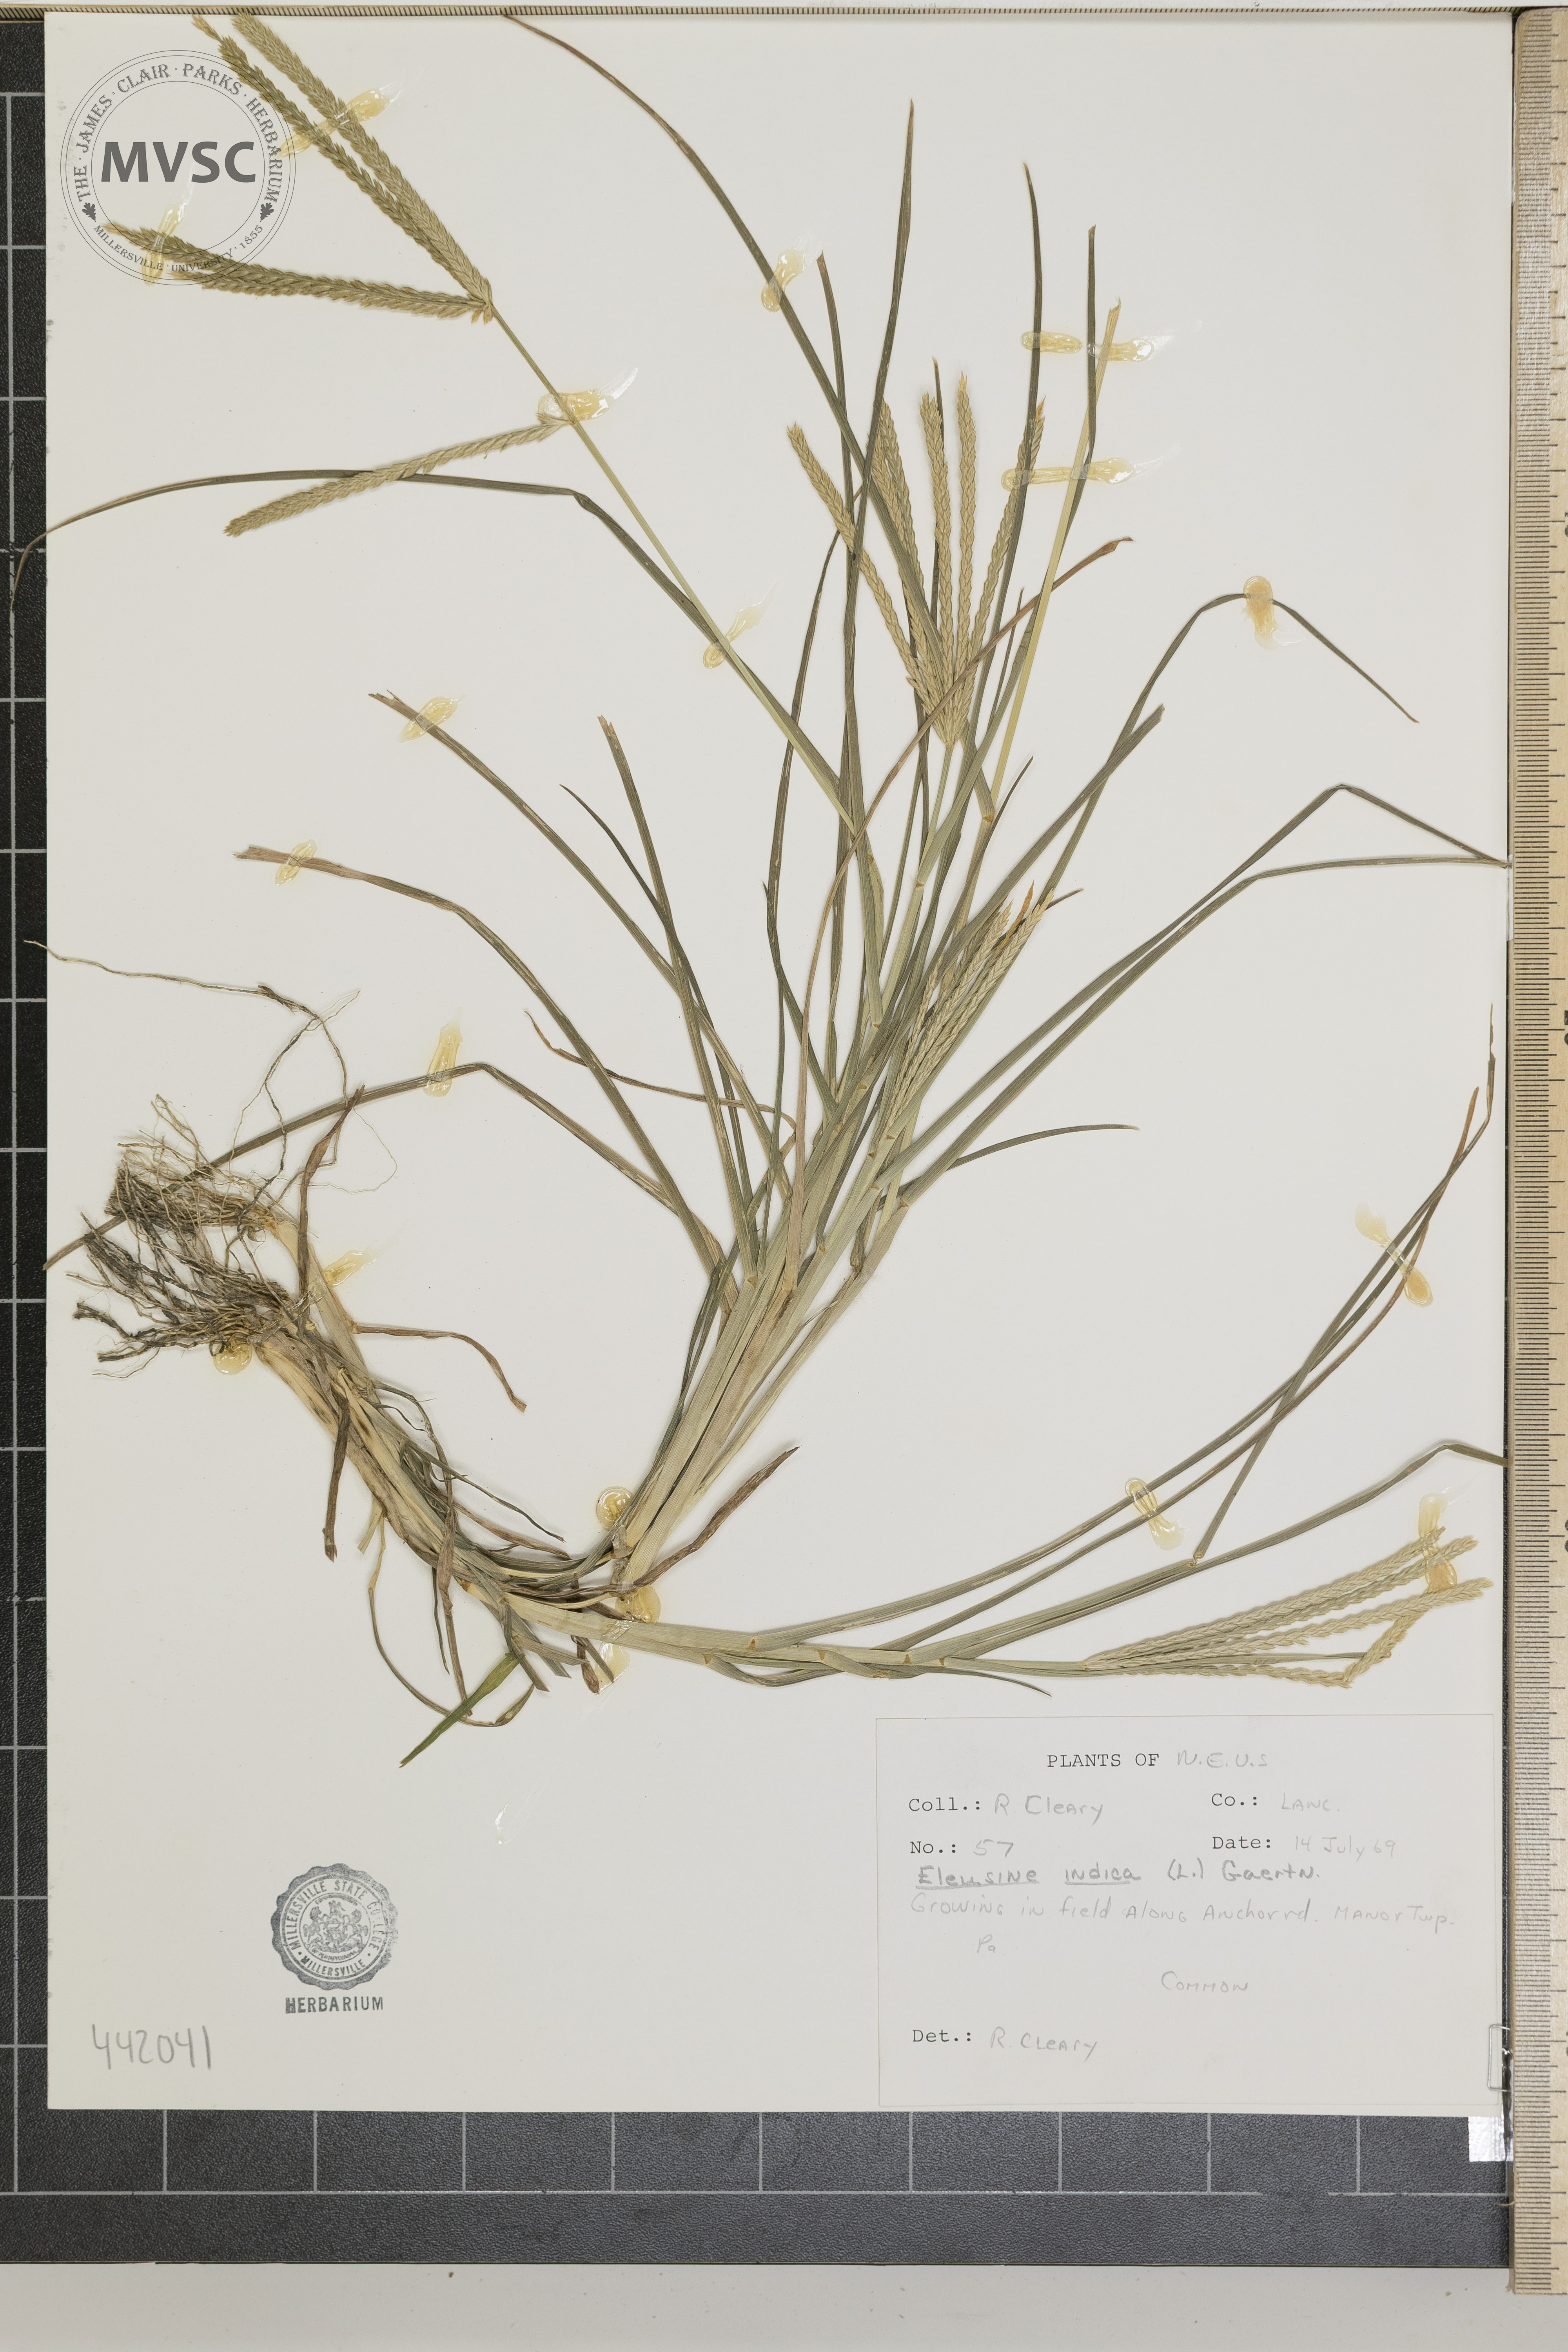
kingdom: Plantae
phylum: Tracheophyta
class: Liliopsida
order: Poales
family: Poaceae
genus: Eleusine
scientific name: Eleusine indica
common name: Yard-grass
